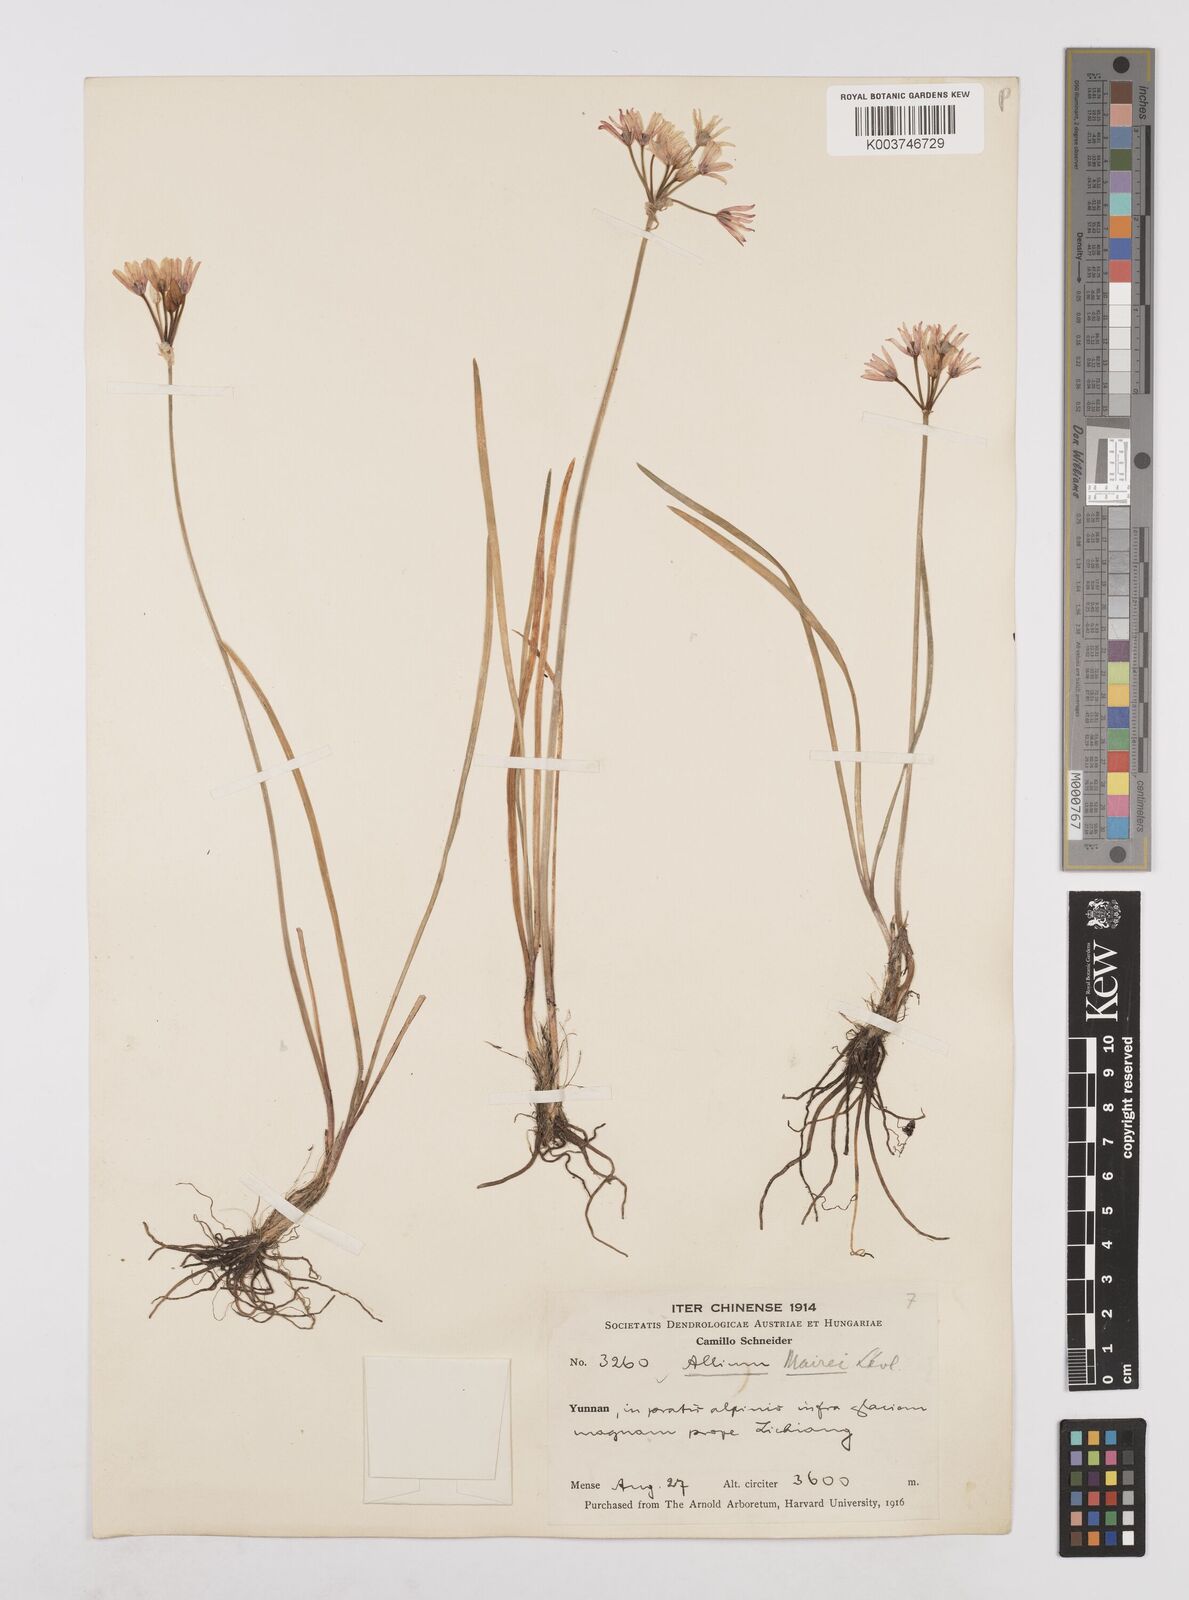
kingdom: Plantae
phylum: Tracheophyta
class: Liliopsida
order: Asparagales
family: Amaryllidaceae
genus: Allium
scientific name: Allium mairei
